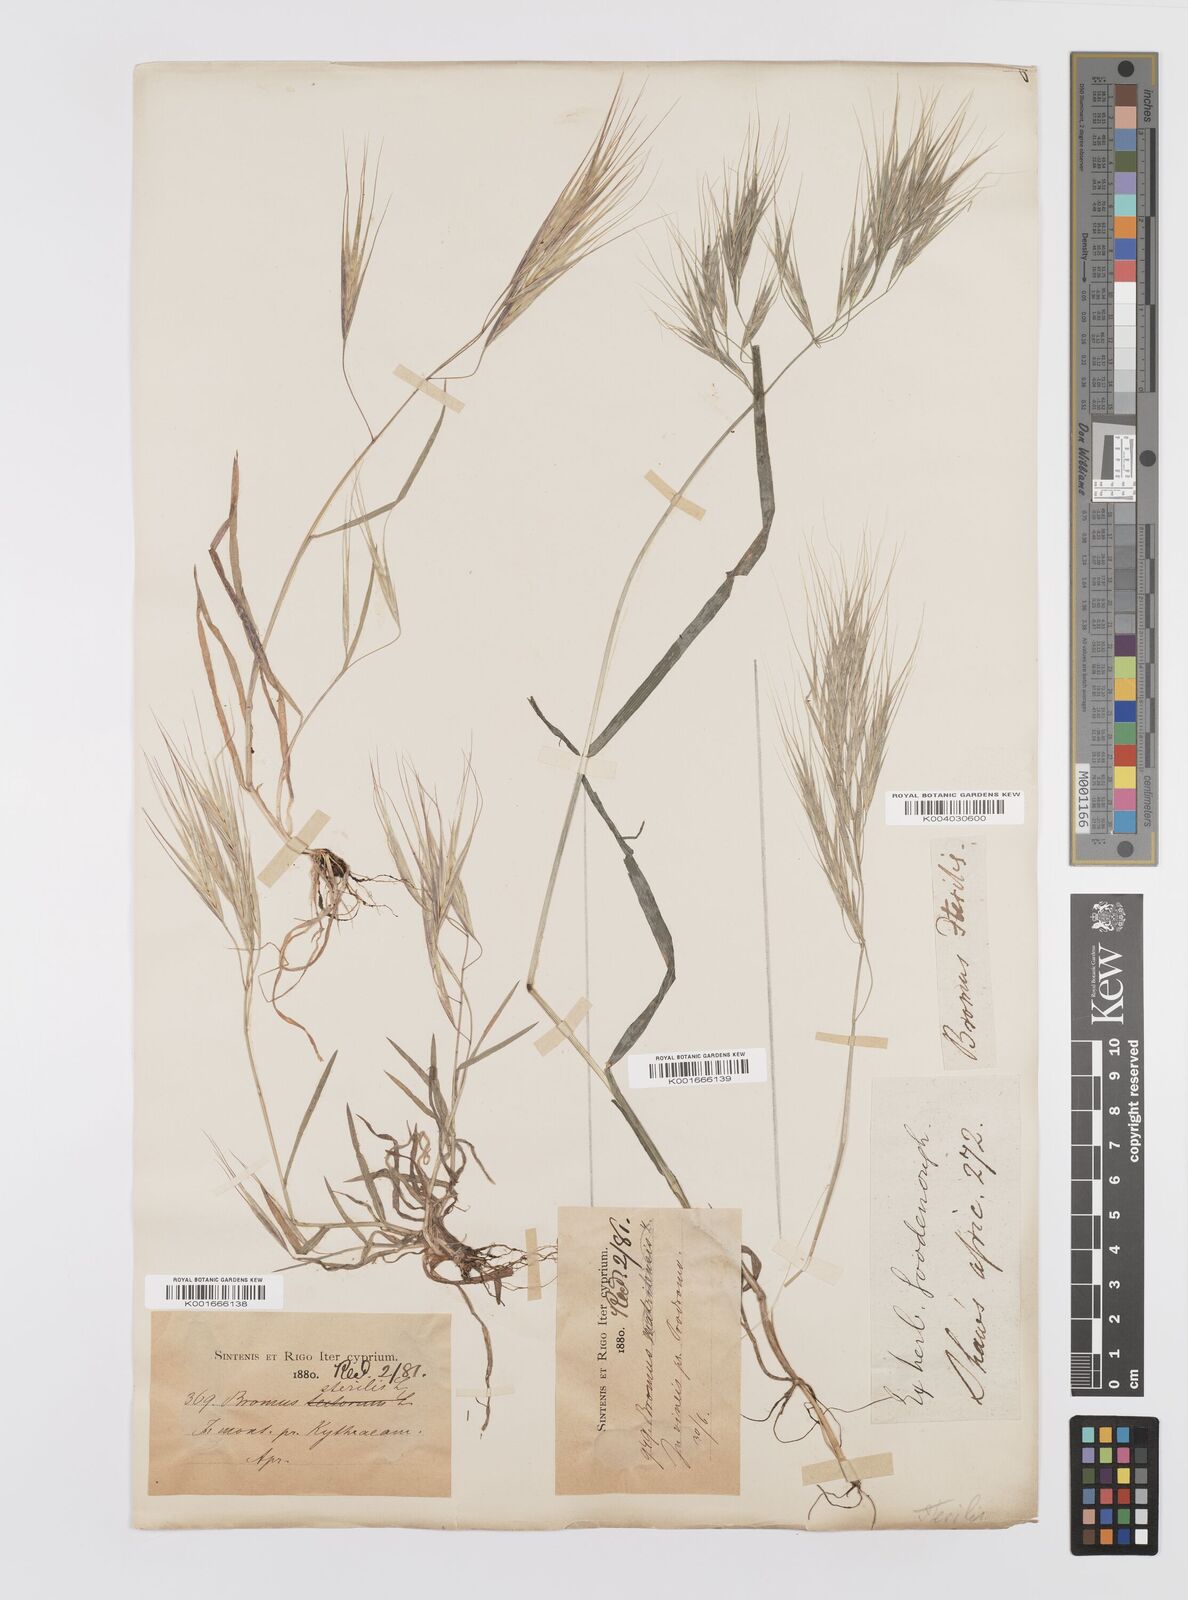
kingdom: Plantae
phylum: Tracheophyta
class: Liliopsida
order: Poales
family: Poaceae
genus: Bromus
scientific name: Bromus sterilis
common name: Poverty brome
